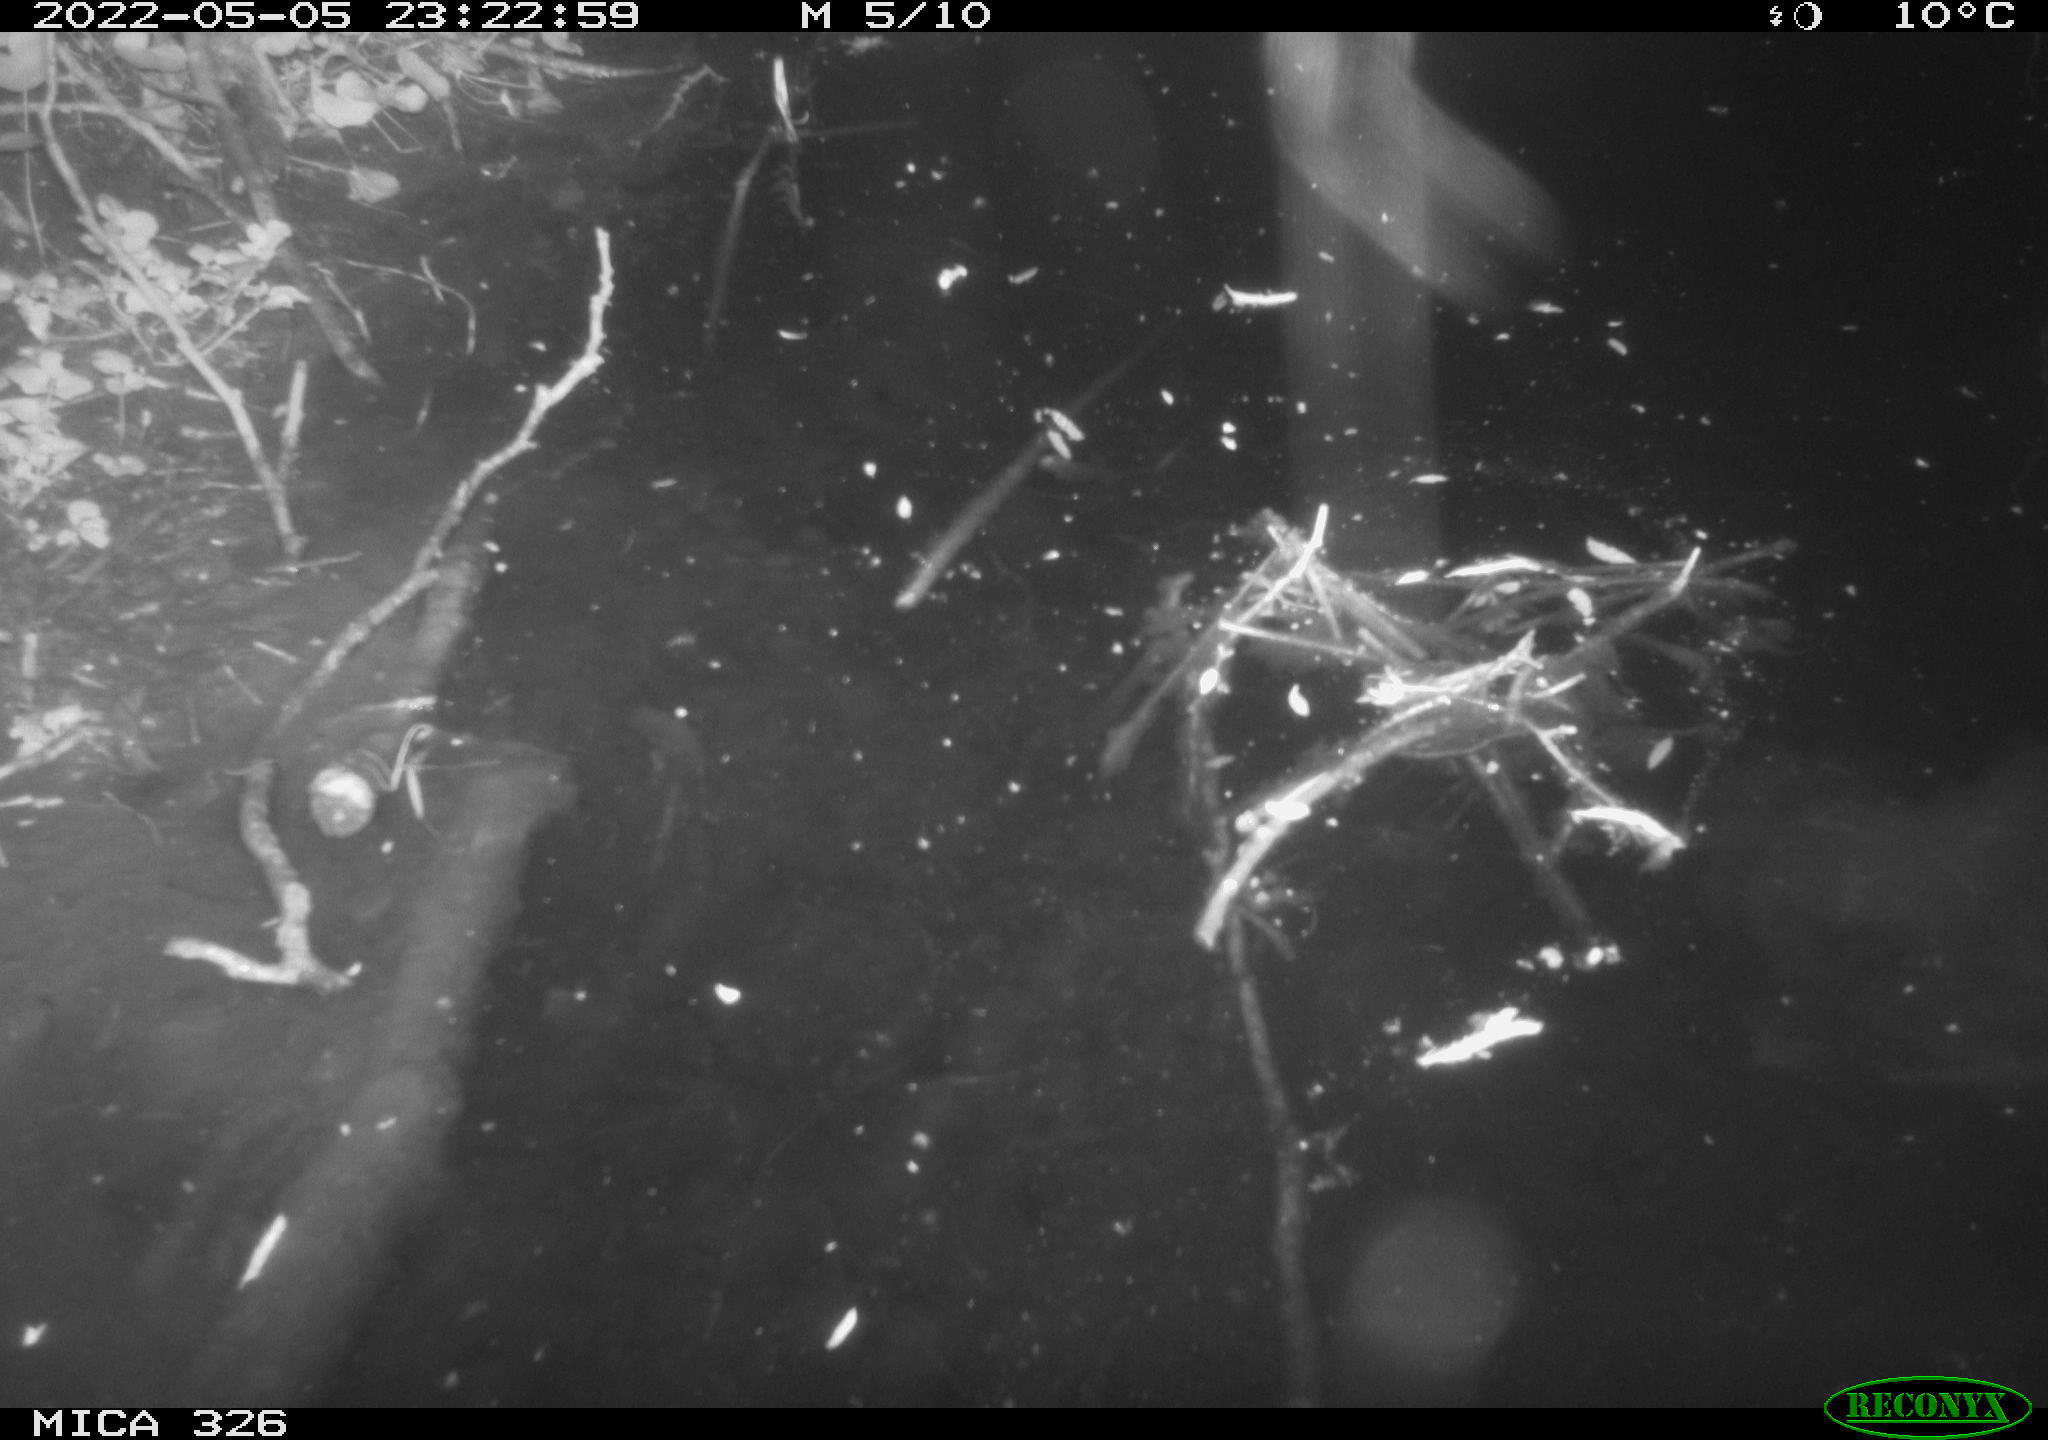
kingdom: Animalia
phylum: Chordata
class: Mammalia
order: Rodentia
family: Cricetidae
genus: Ondatra
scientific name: Ondatra zibethicus
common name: Muskrat
